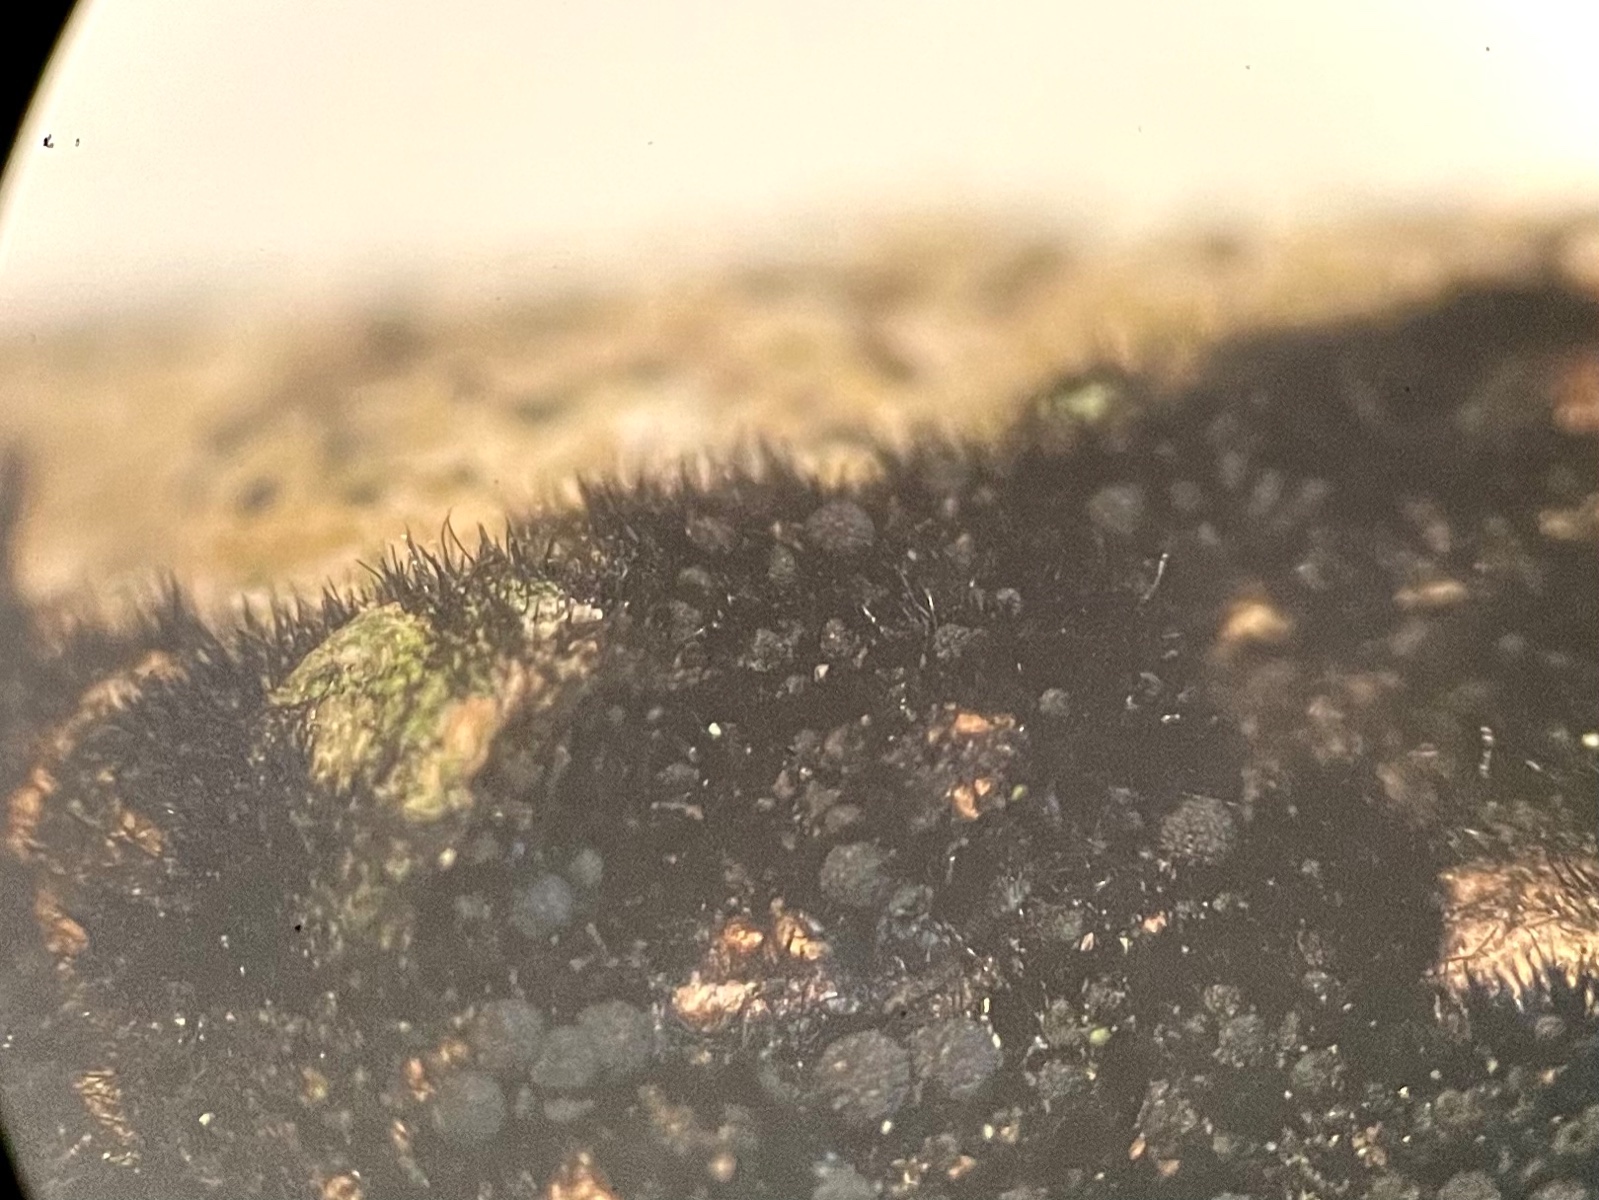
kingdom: Fungi
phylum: Ascomycota
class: Sordariomycetes
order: Coronophorales
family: Chaetosphaerellaceae
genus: Chaetosphaerella
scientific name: Chaetosphaerella phaeostroma
